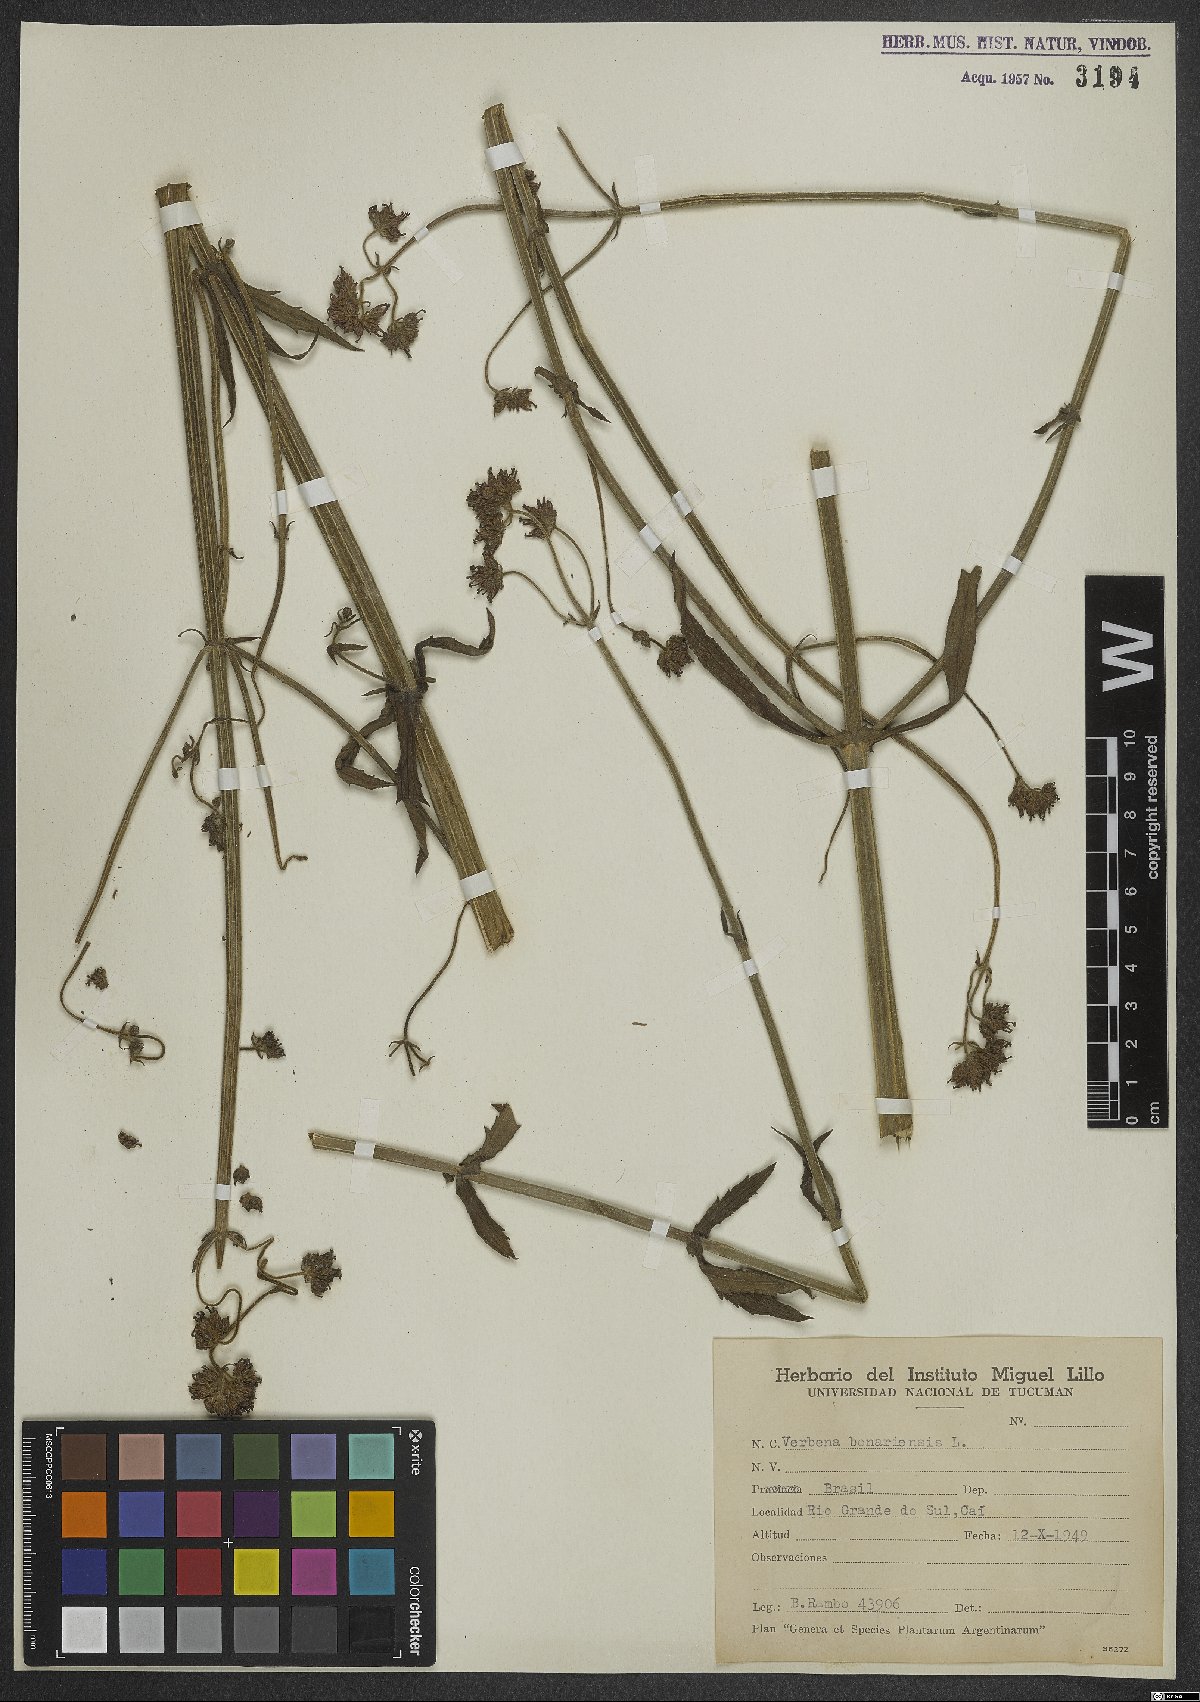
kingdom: Plantae
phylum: Tracheophyta
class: Magnoliopsida
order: Lamiales
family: Verbenaceae
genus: Verbena
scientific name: Verbena bonariensis
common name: Purpletop vervain
